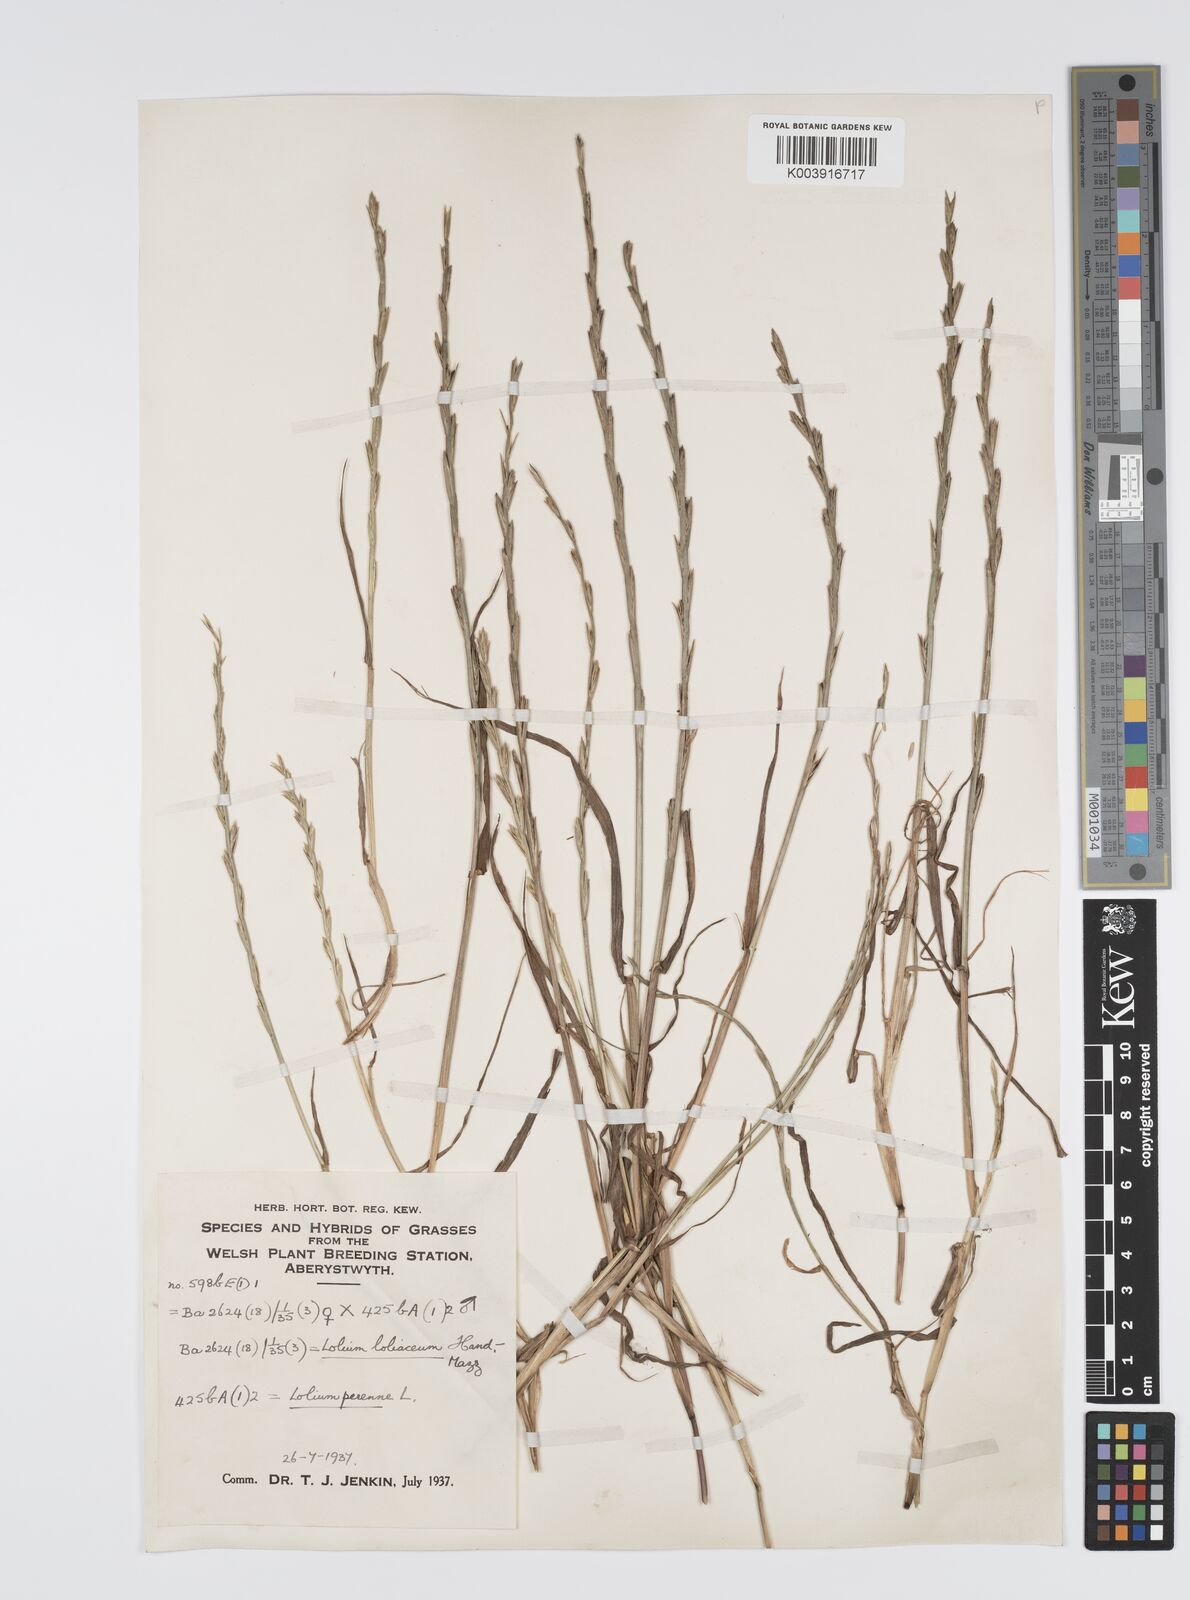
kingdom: Plantae
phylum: Tracheophyta
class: Liliopsida
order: Poales
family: Poaceae
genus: Lolium
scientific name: Lolium perenne
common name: Perennial ryegrass
